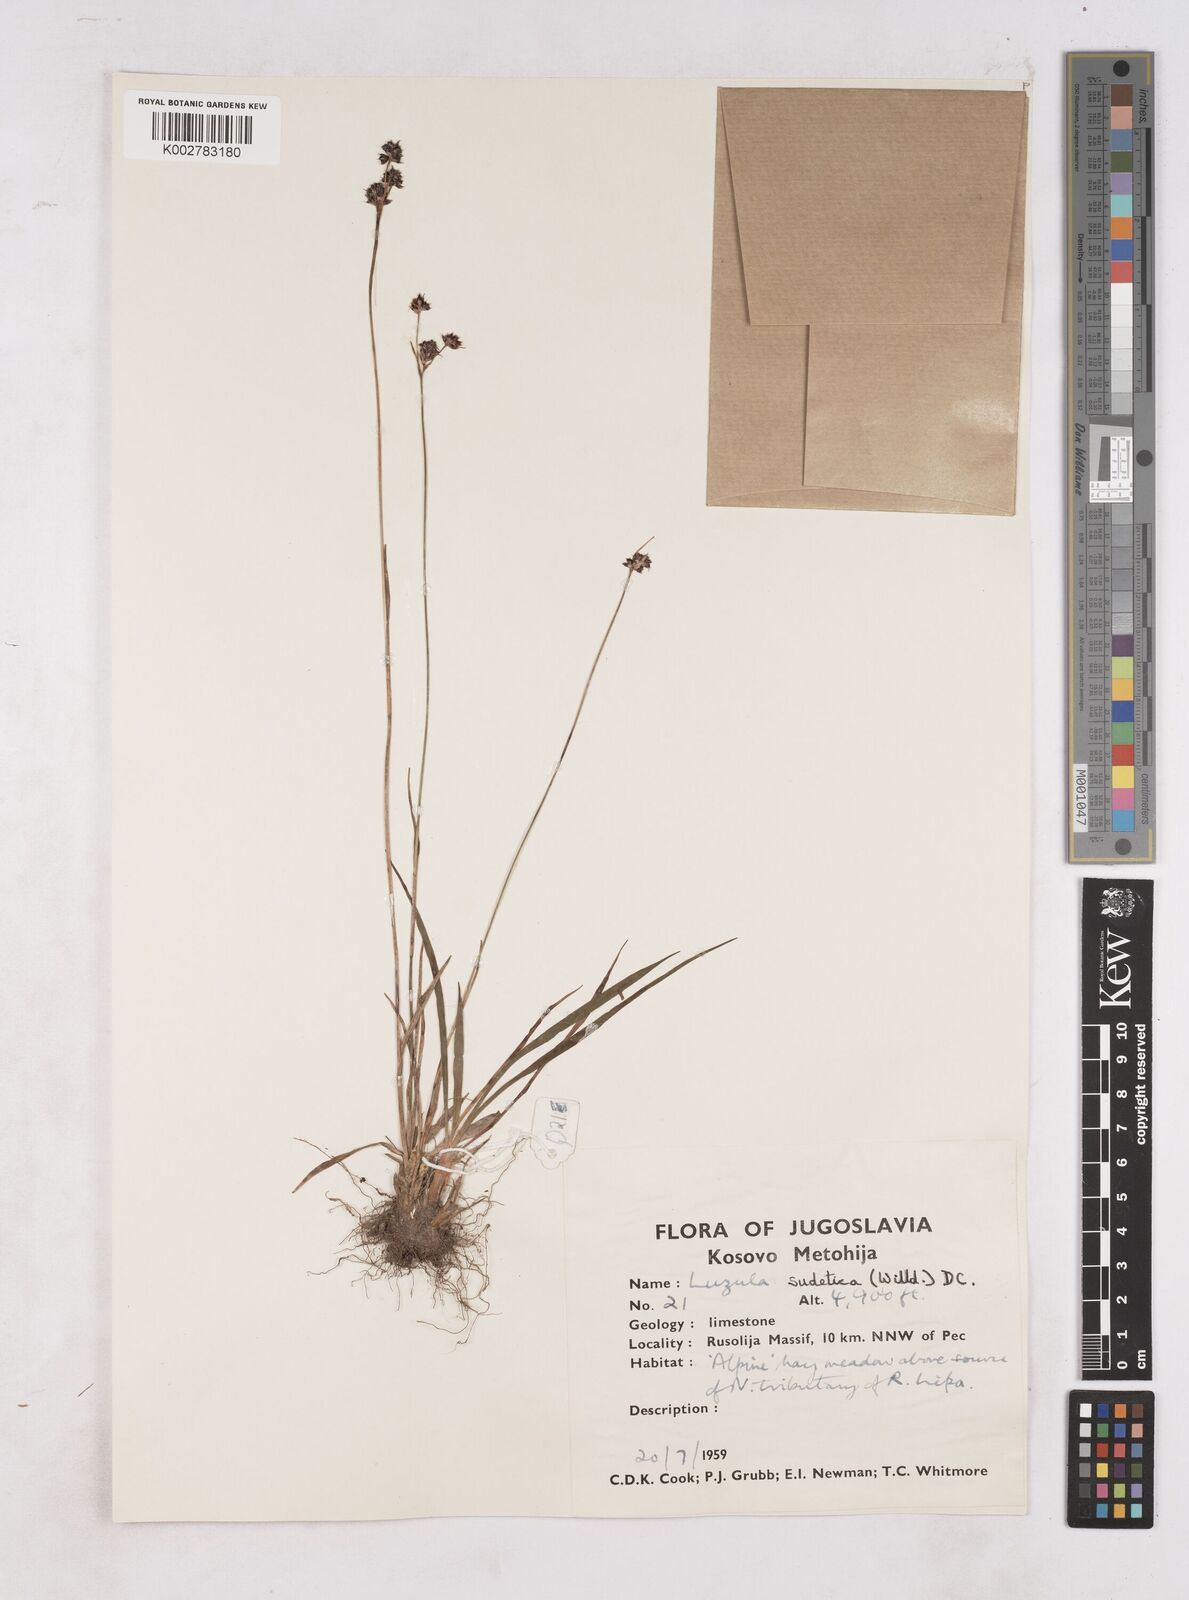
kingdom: Plantae
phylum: Tracheophyta
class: Liliopsida
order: Poales
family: Juncaceae
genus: Luzula
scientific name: Luzula sudetica
